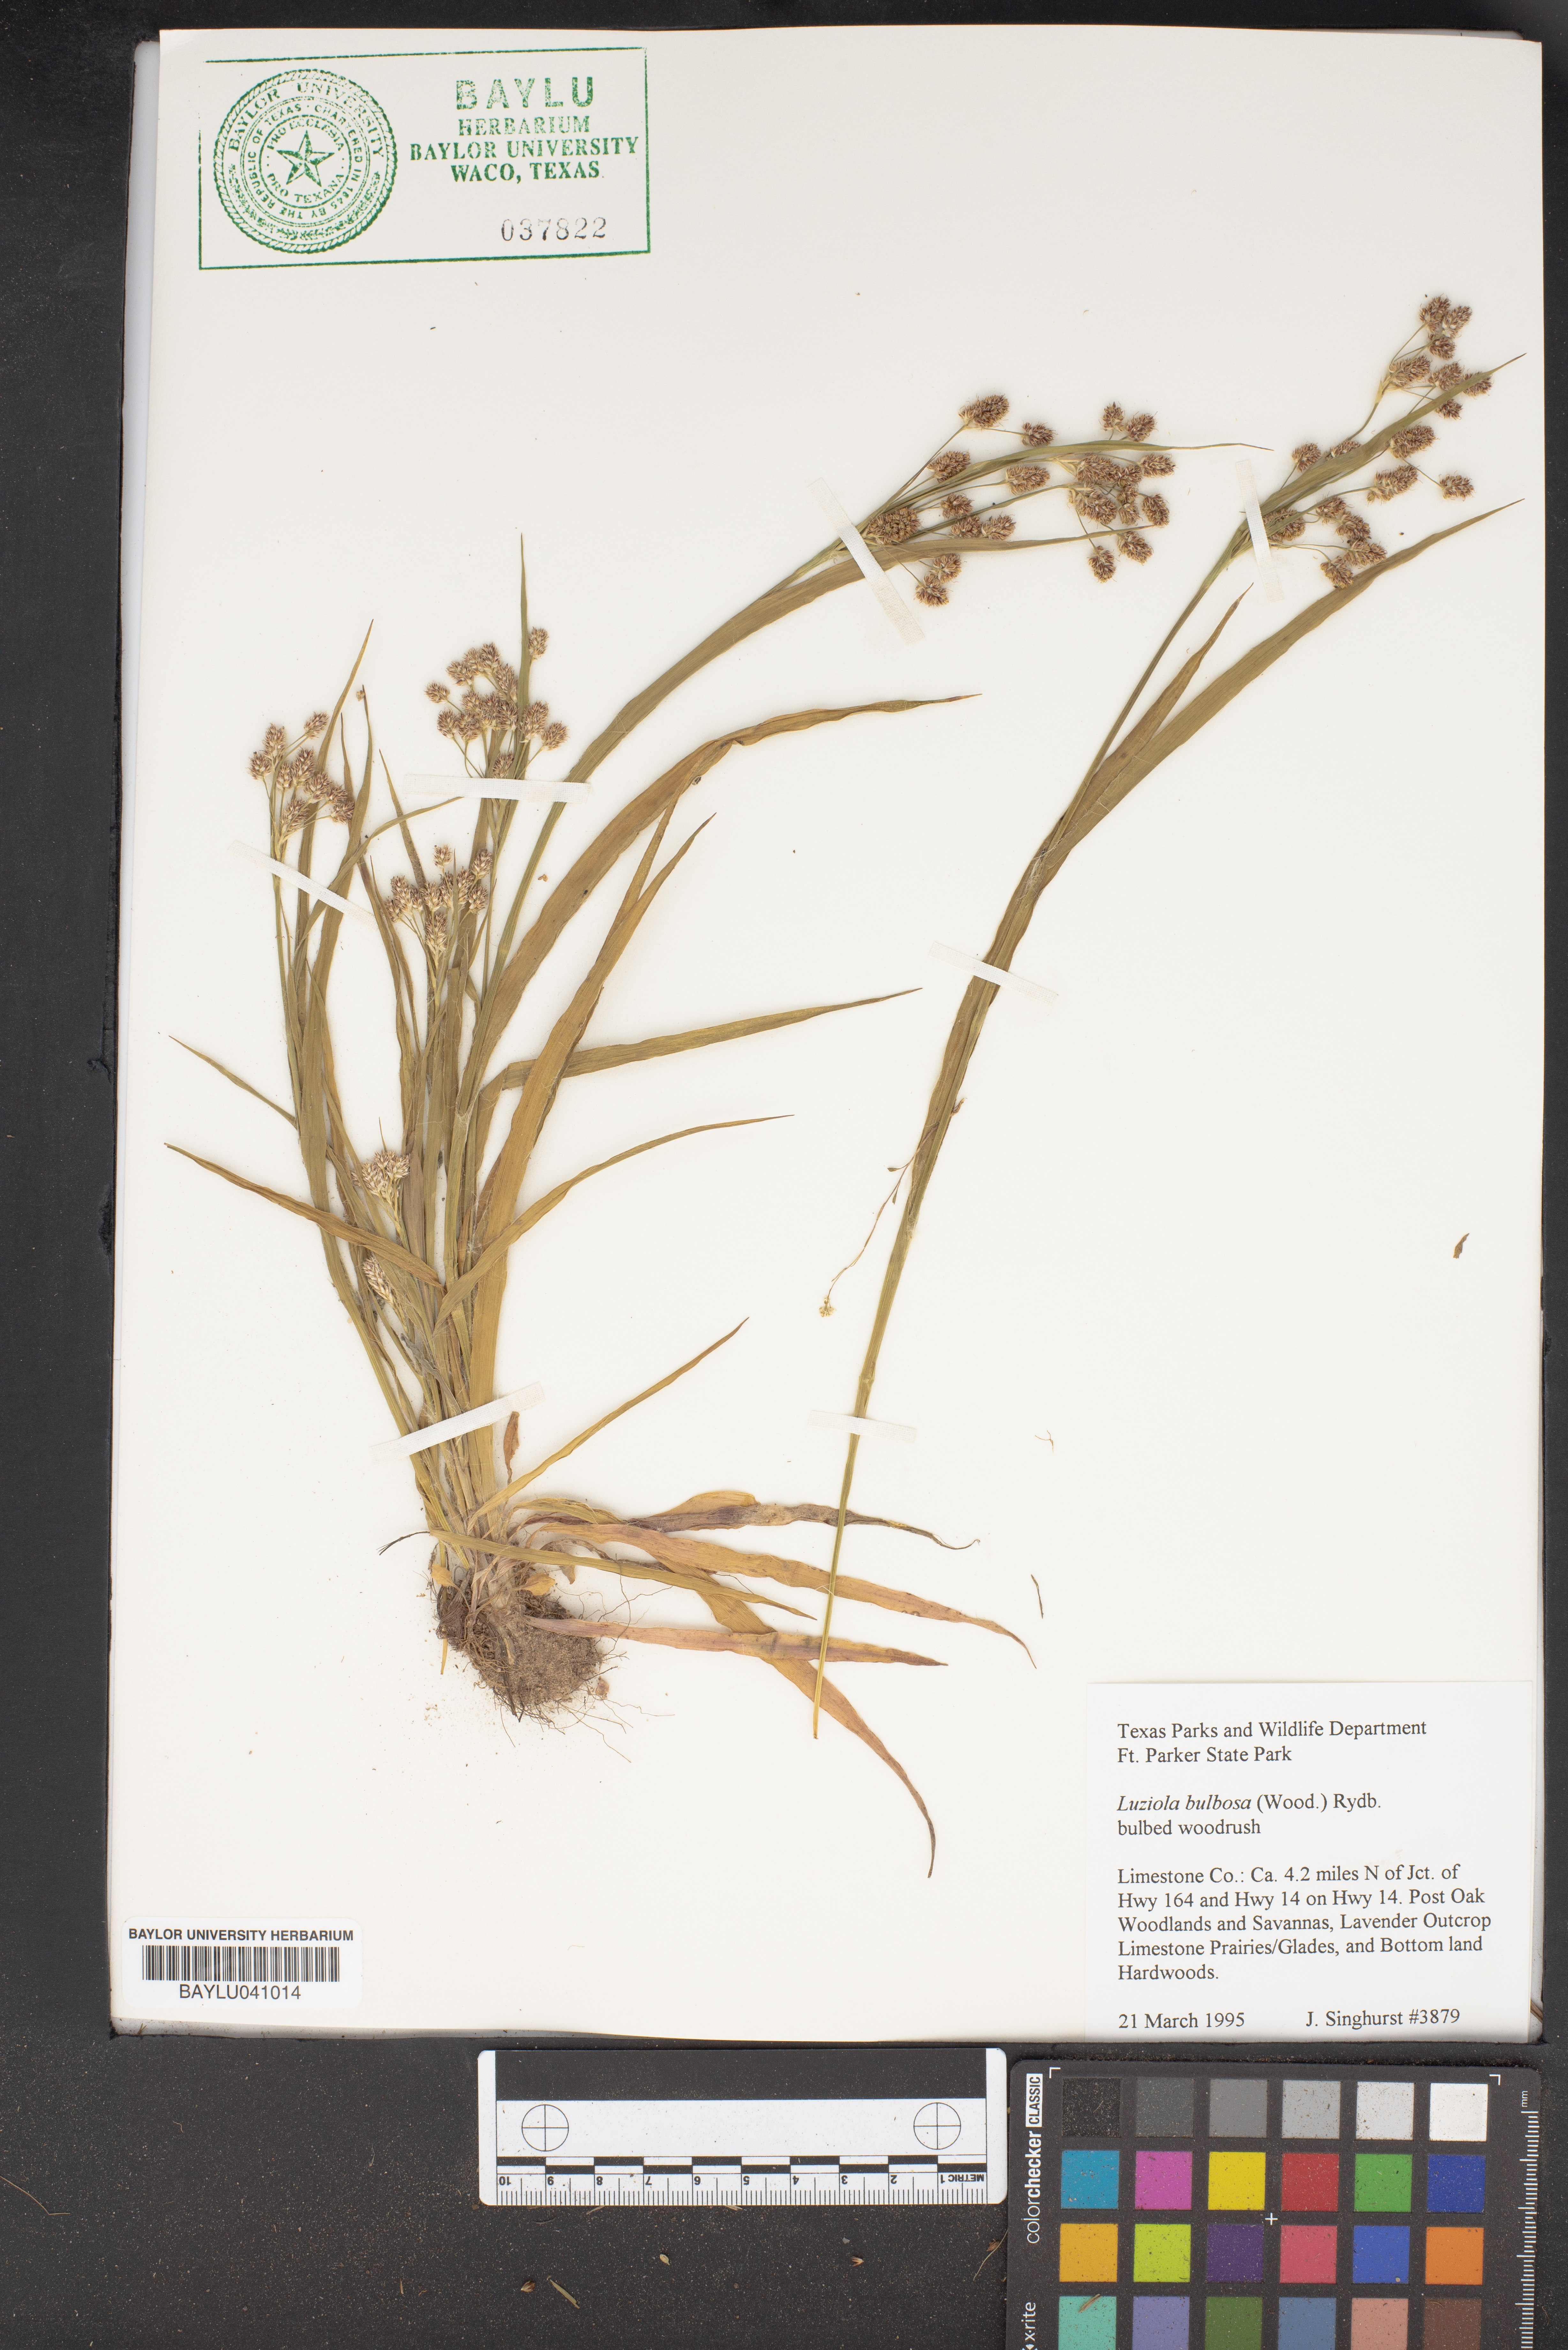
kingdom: Plantae
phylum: Tracheophyta
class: Liliopsida
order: Poales
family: Poaceae
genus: Luziola
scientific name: Luziola bulbosa
